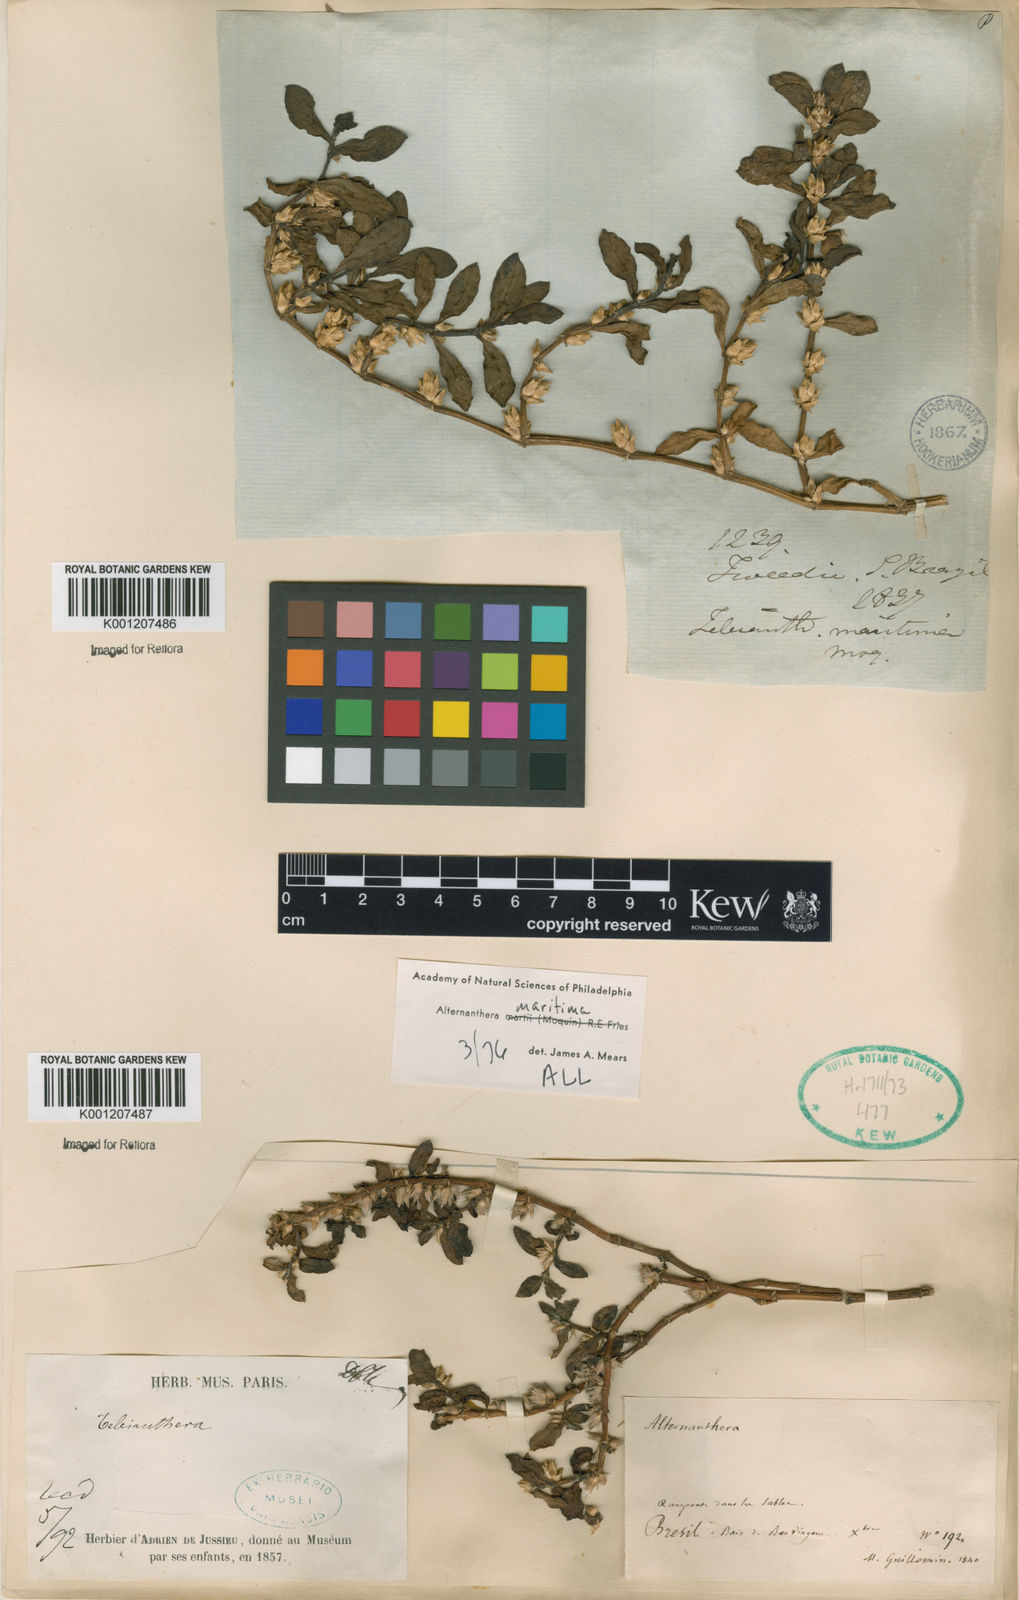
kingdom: Plantae
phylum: Tracheophyta
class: Magnoliopsida
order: Caryophyllales
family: Amaranthaceae
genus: Alternanthera
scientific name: Alternanthera littoralis
